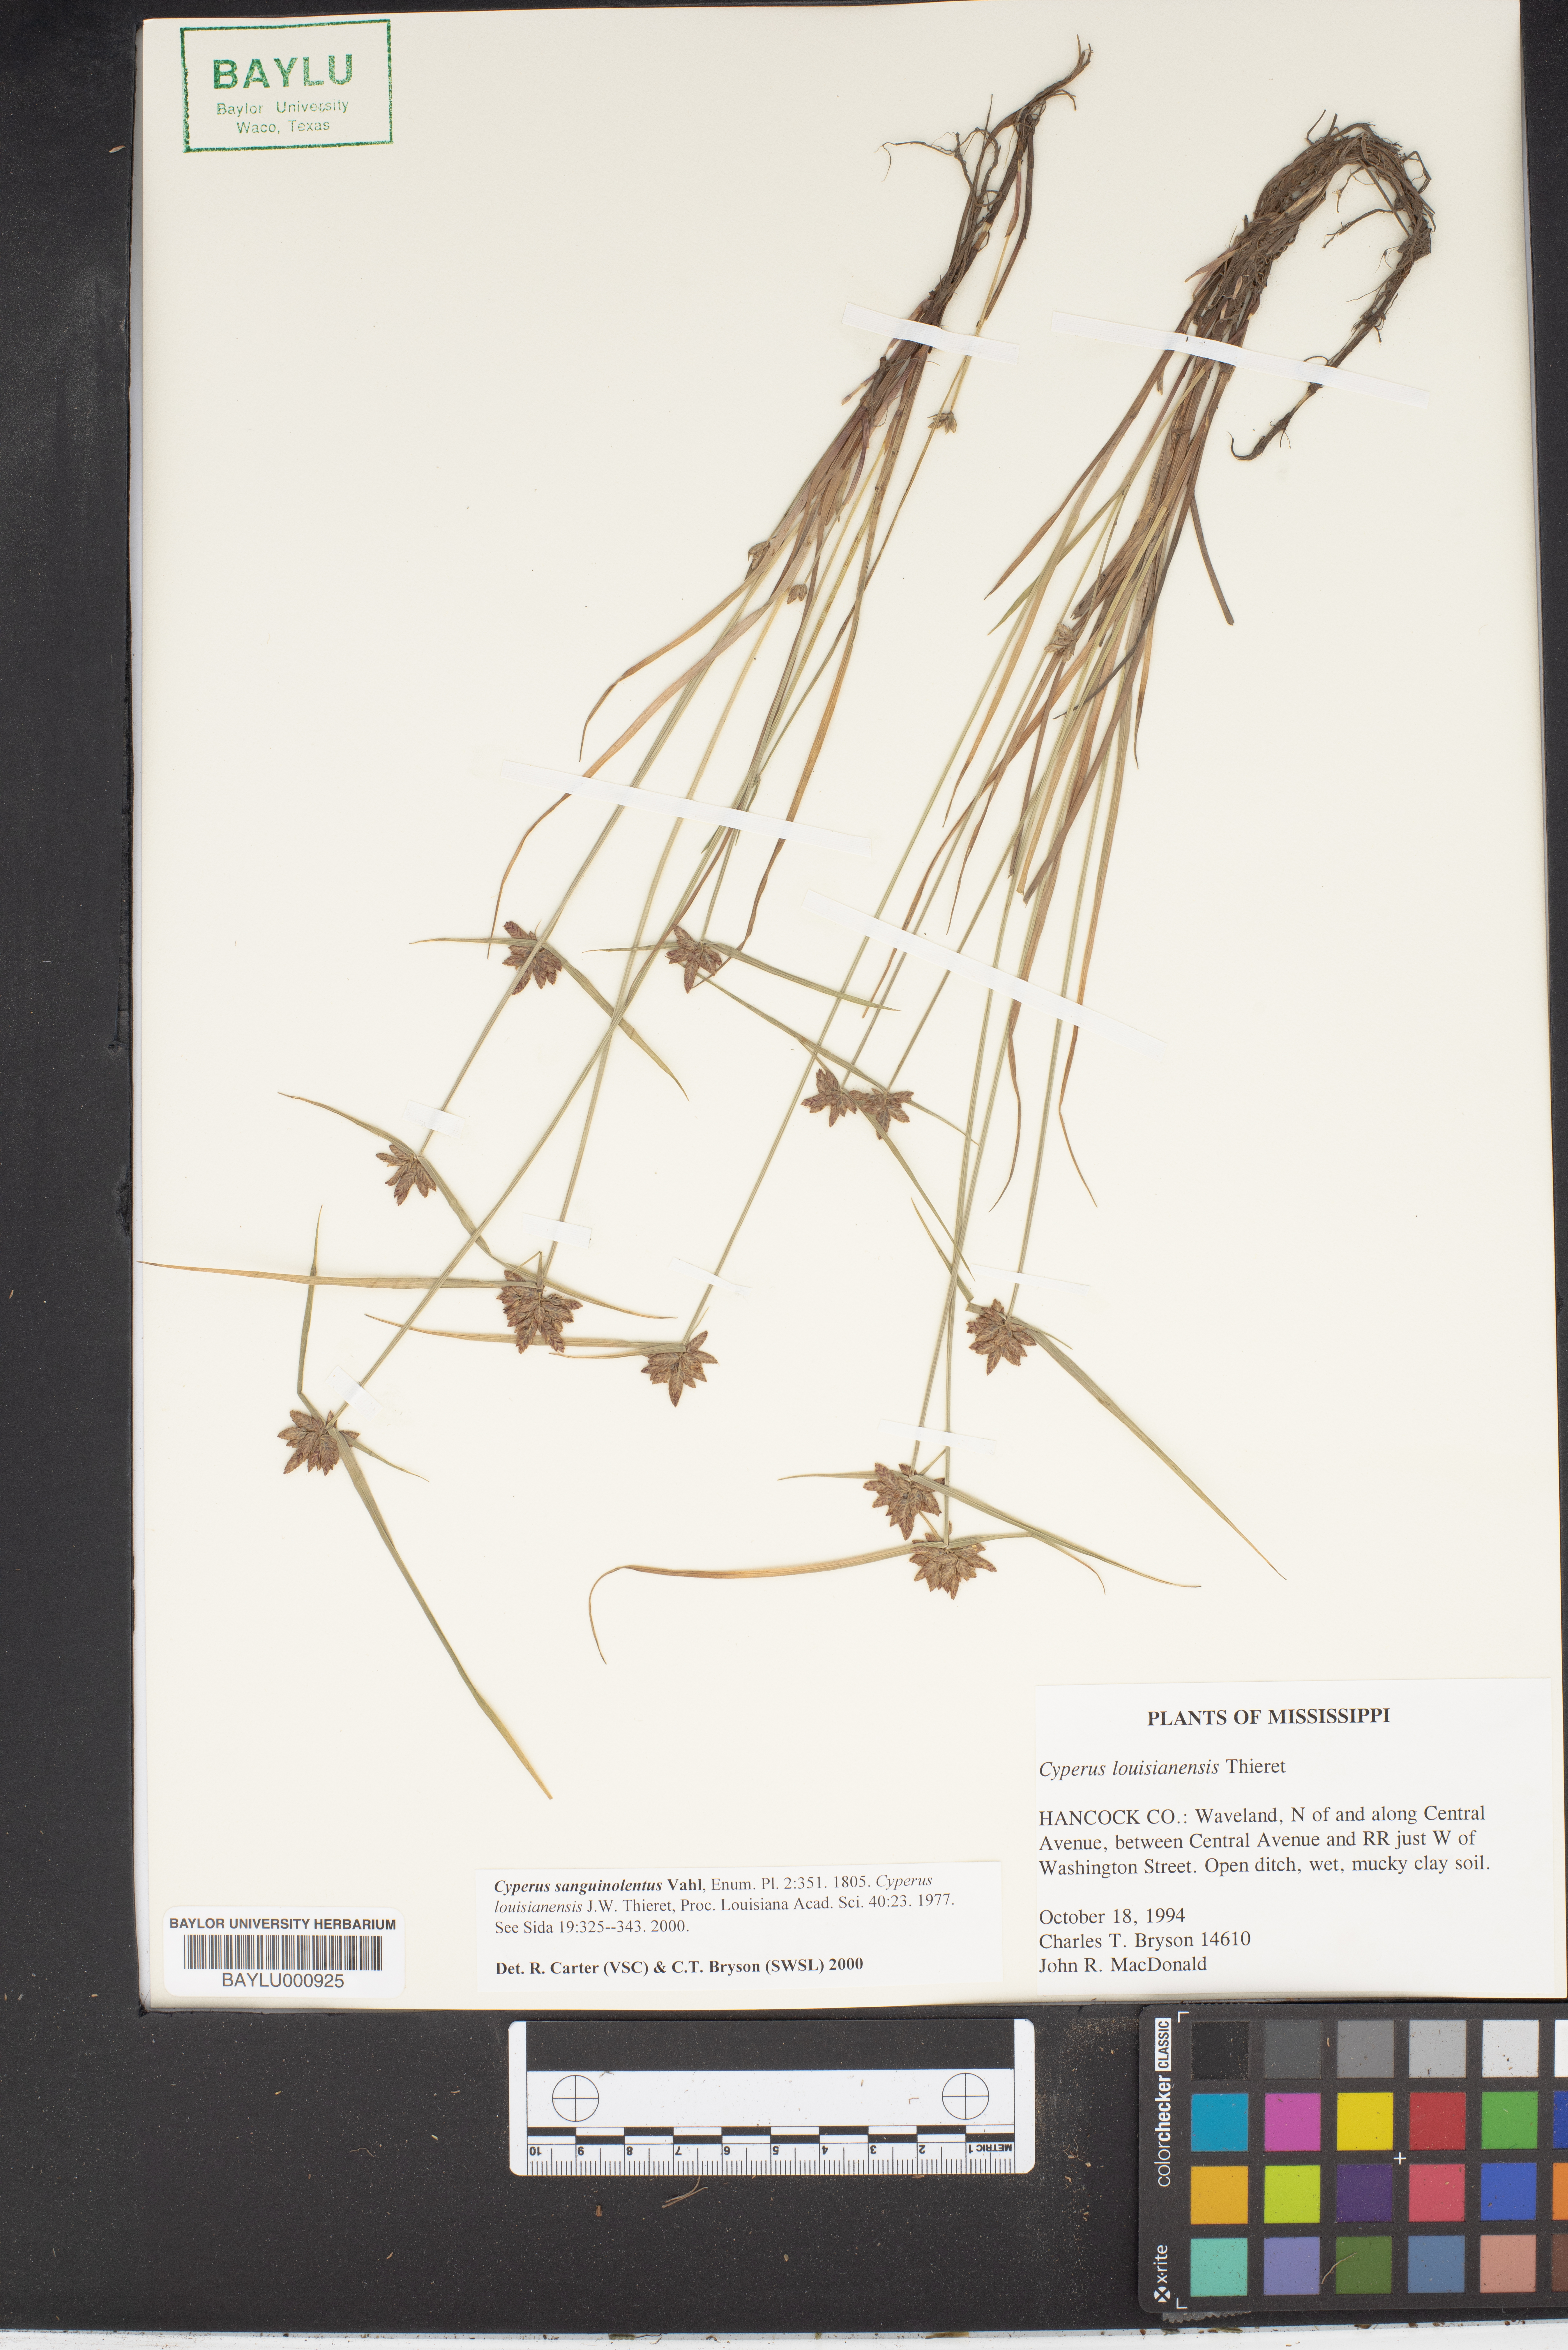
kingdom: Plantae
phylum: Tracheophyta
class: Liliopsida
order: Poales
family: Cyperaceae
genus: Cyperus
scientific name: Cyperus sanguinolentus
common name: Purpleglume flatsedge
